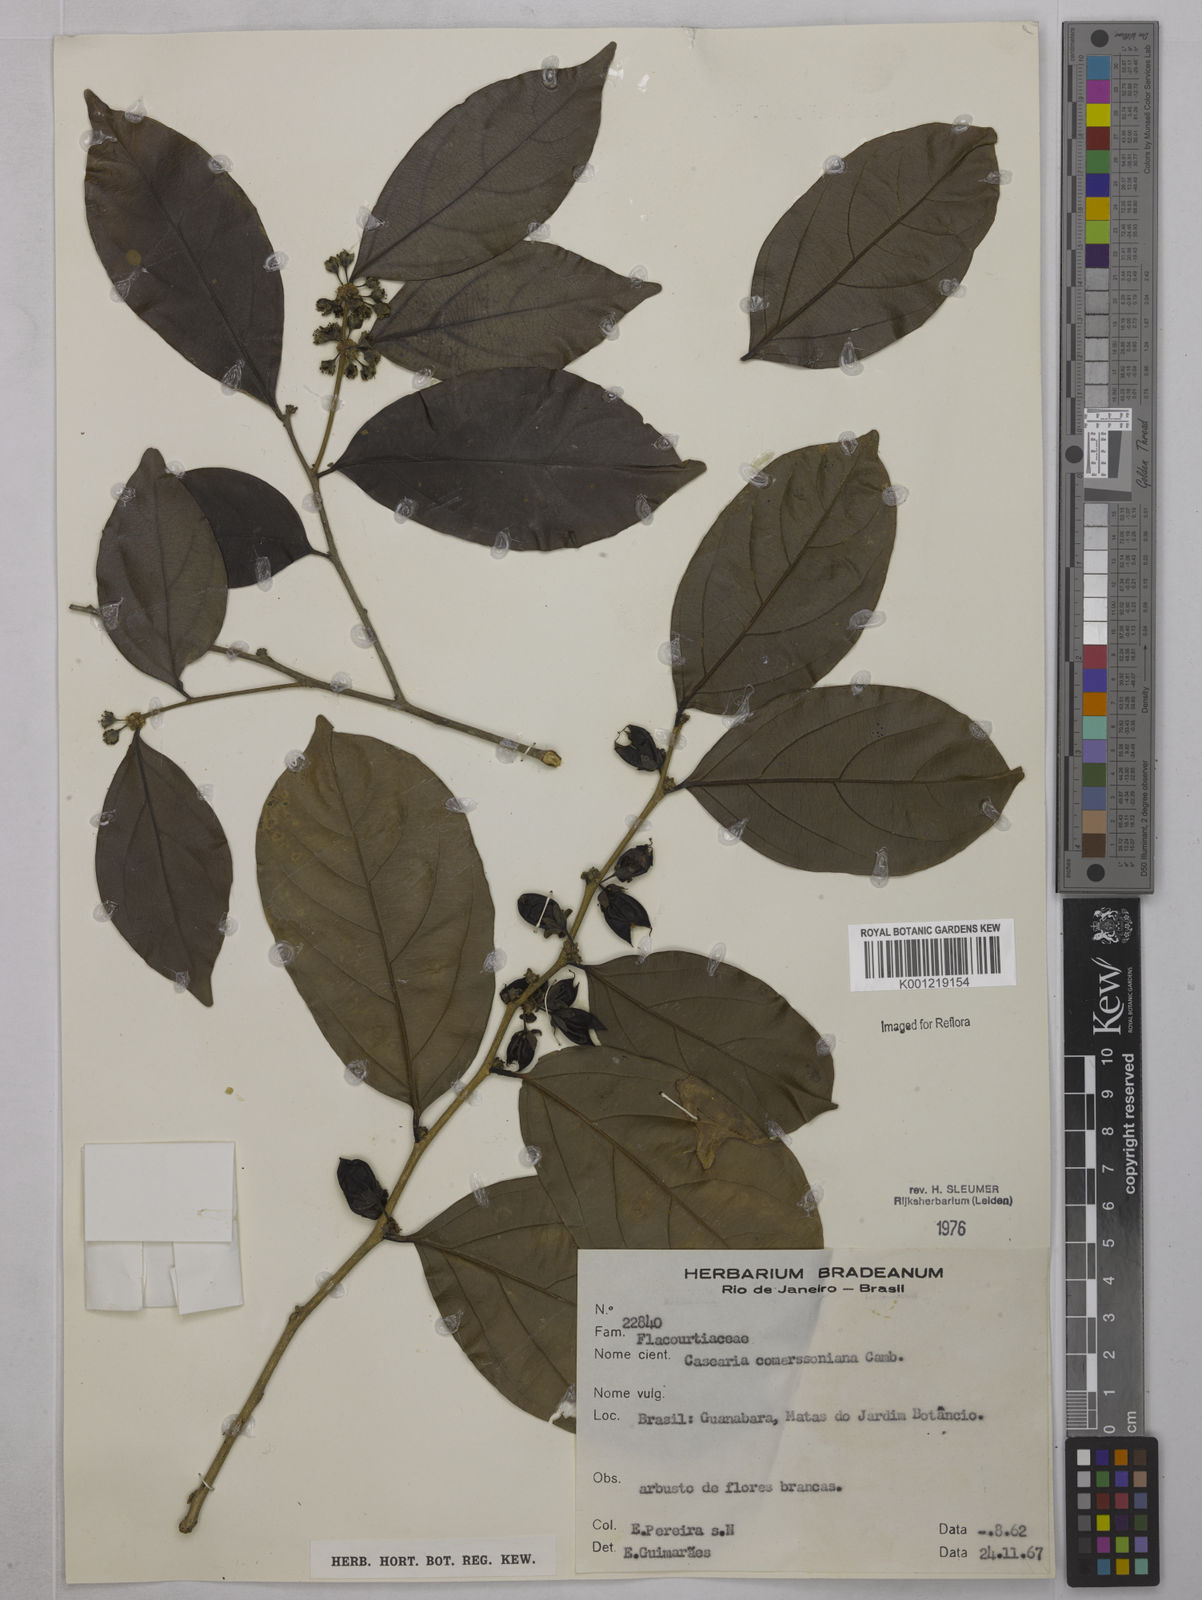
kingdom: Plantae
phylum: Tracheophyta
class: Magnoliopsida
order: Malpighiales
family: Salicaceae
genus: Piparea
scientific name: Piparea dentata
